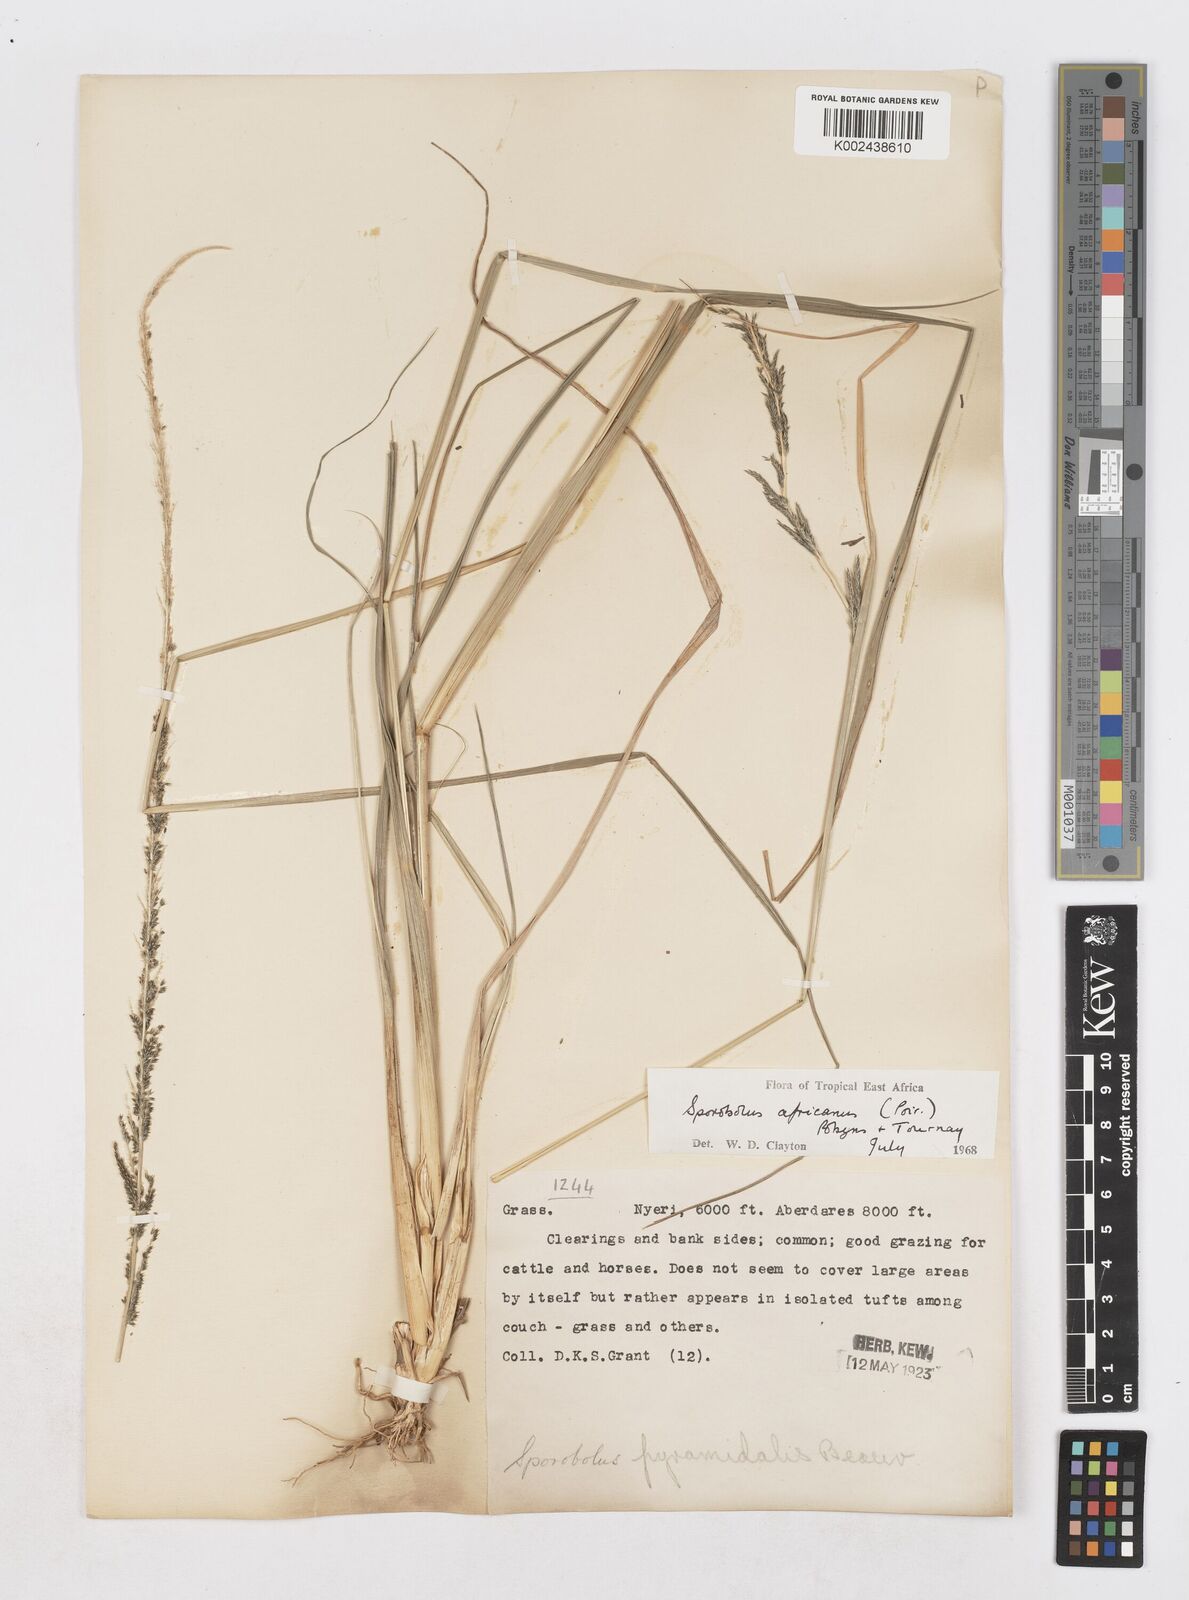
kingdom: Plantae
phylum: Tracheophyta
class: Liliopsida
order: Poales
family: Poaceae
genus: Sporobolus
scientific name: Sporobolus africanus
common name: African dropseed
